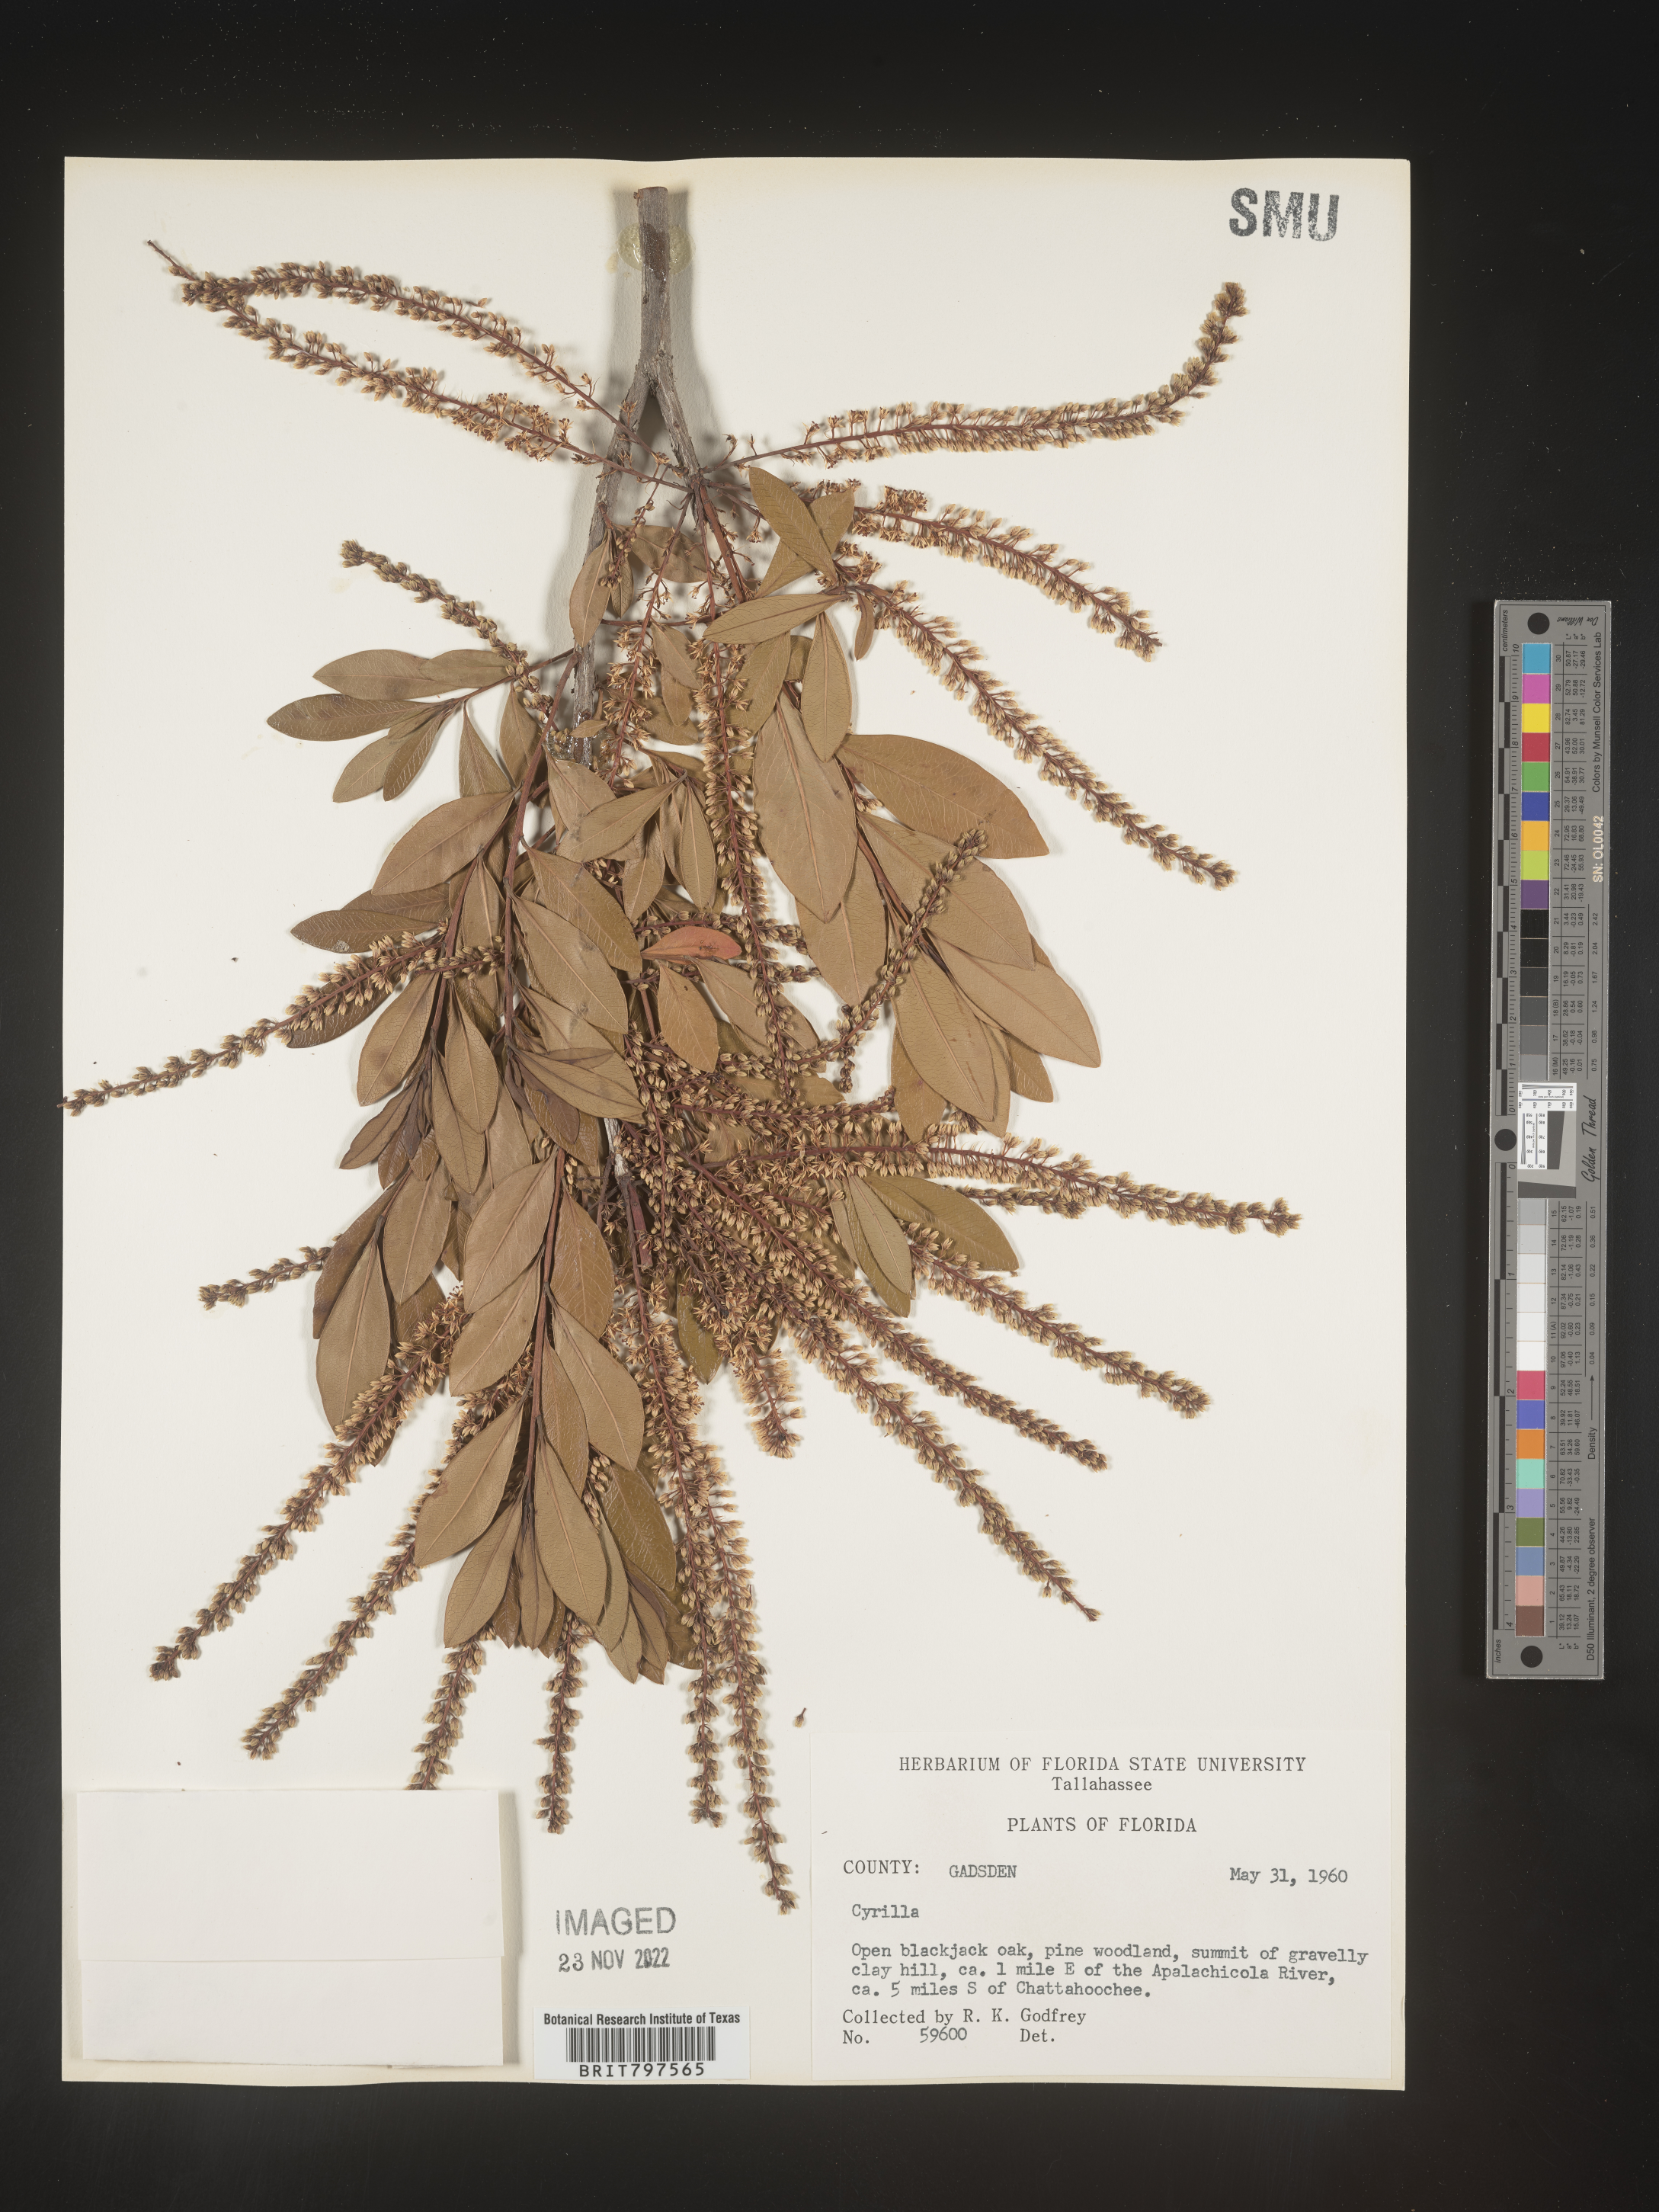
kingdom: Plantae
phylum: Tracheophyta
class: Magnoliopsida
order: Ericales
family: Cyrillaceae
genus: Cyrilla
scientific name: Cyrilla racemiflora
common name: Black titi
